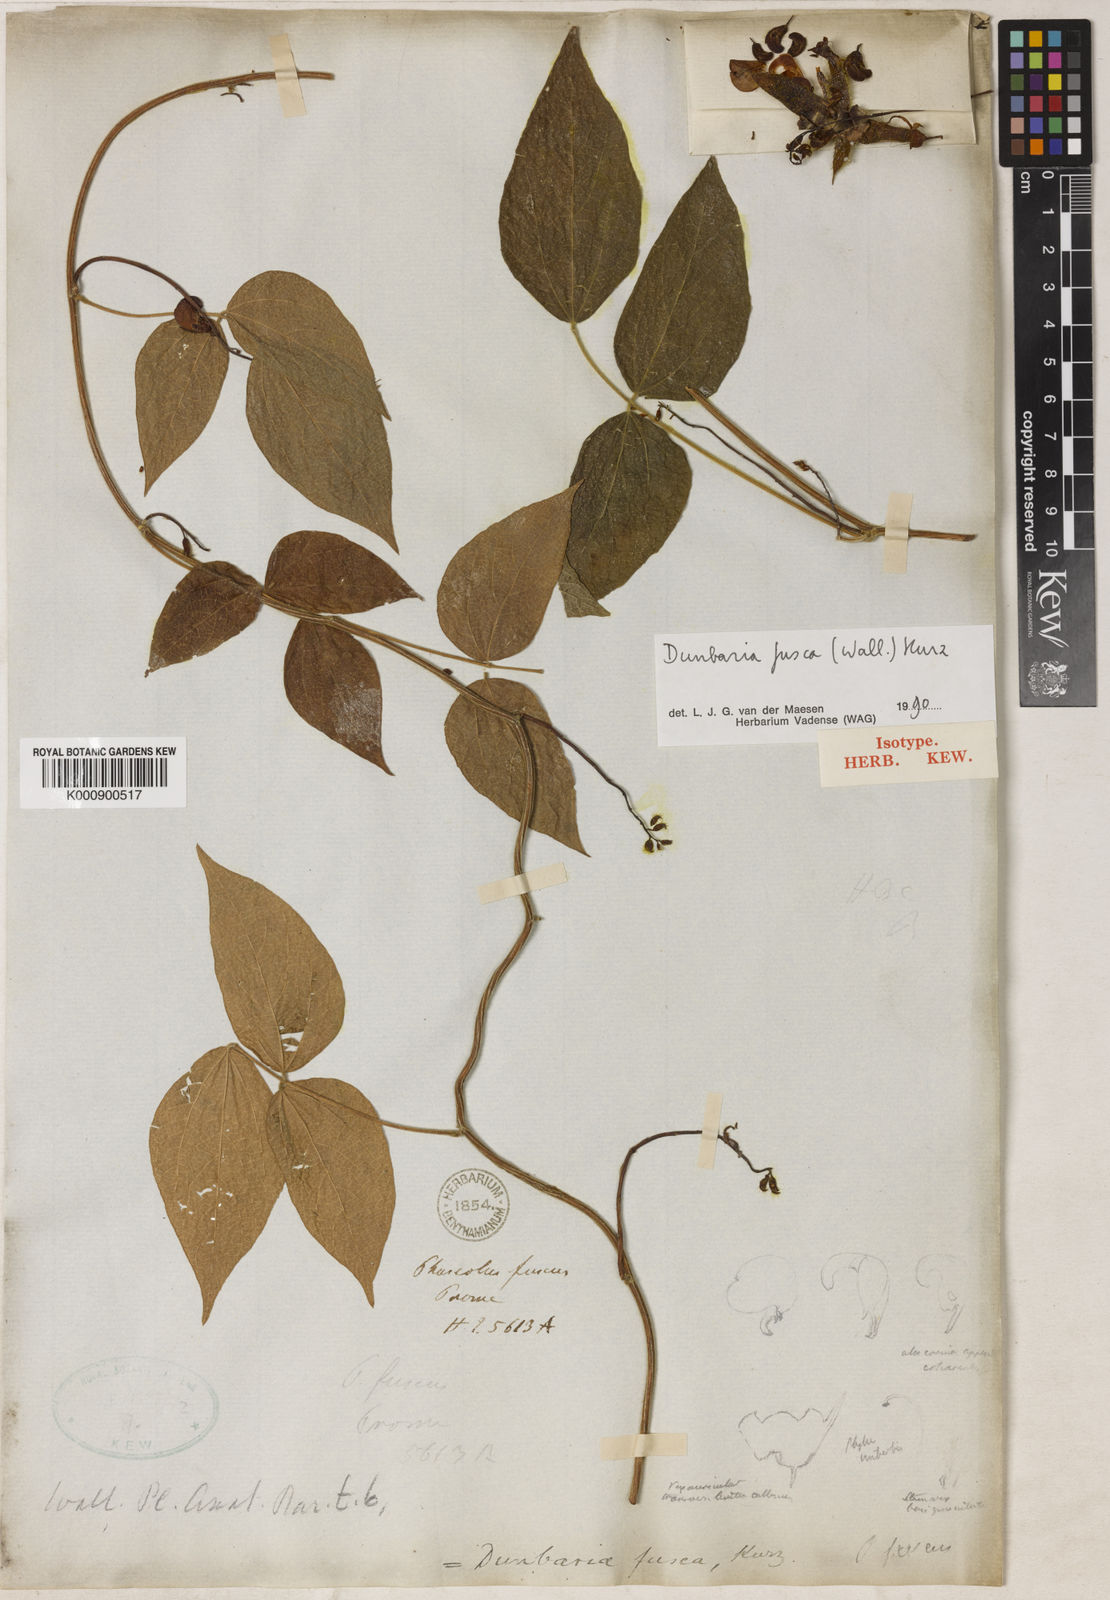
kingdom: Plantae
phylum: Tracheophyta
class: Magnoliopsida
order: Fabales
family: Fabaceae
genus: Dunbaria
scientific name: Dunbaria fusca
